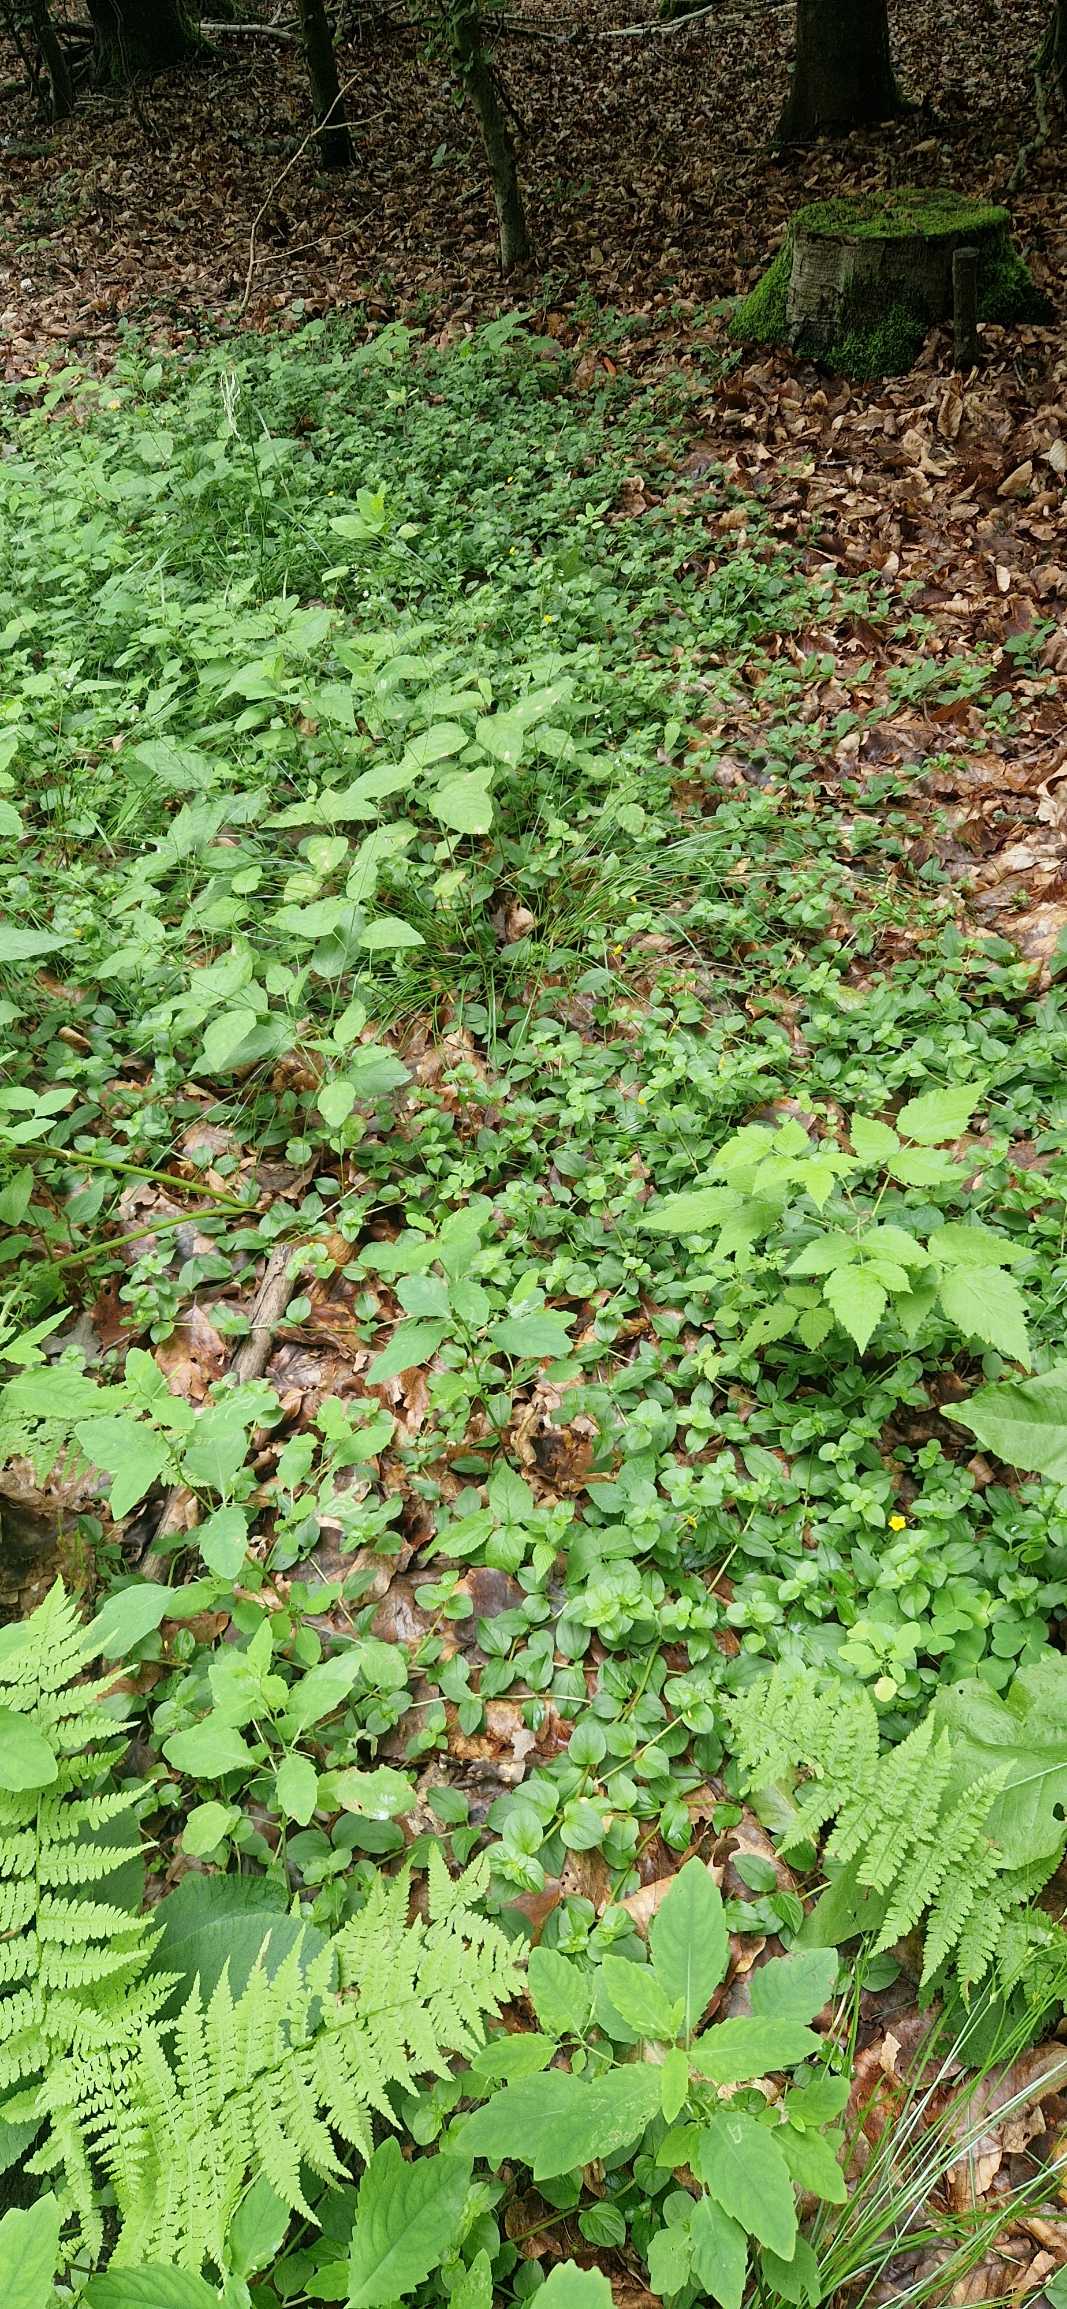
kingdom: Plantae
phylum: Tracheophyta
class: Magnoliopsida
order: Ericales
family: Primulaceae
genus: Lysimachia
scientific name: Lysimachia nemorum
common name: Lund-fredløs
